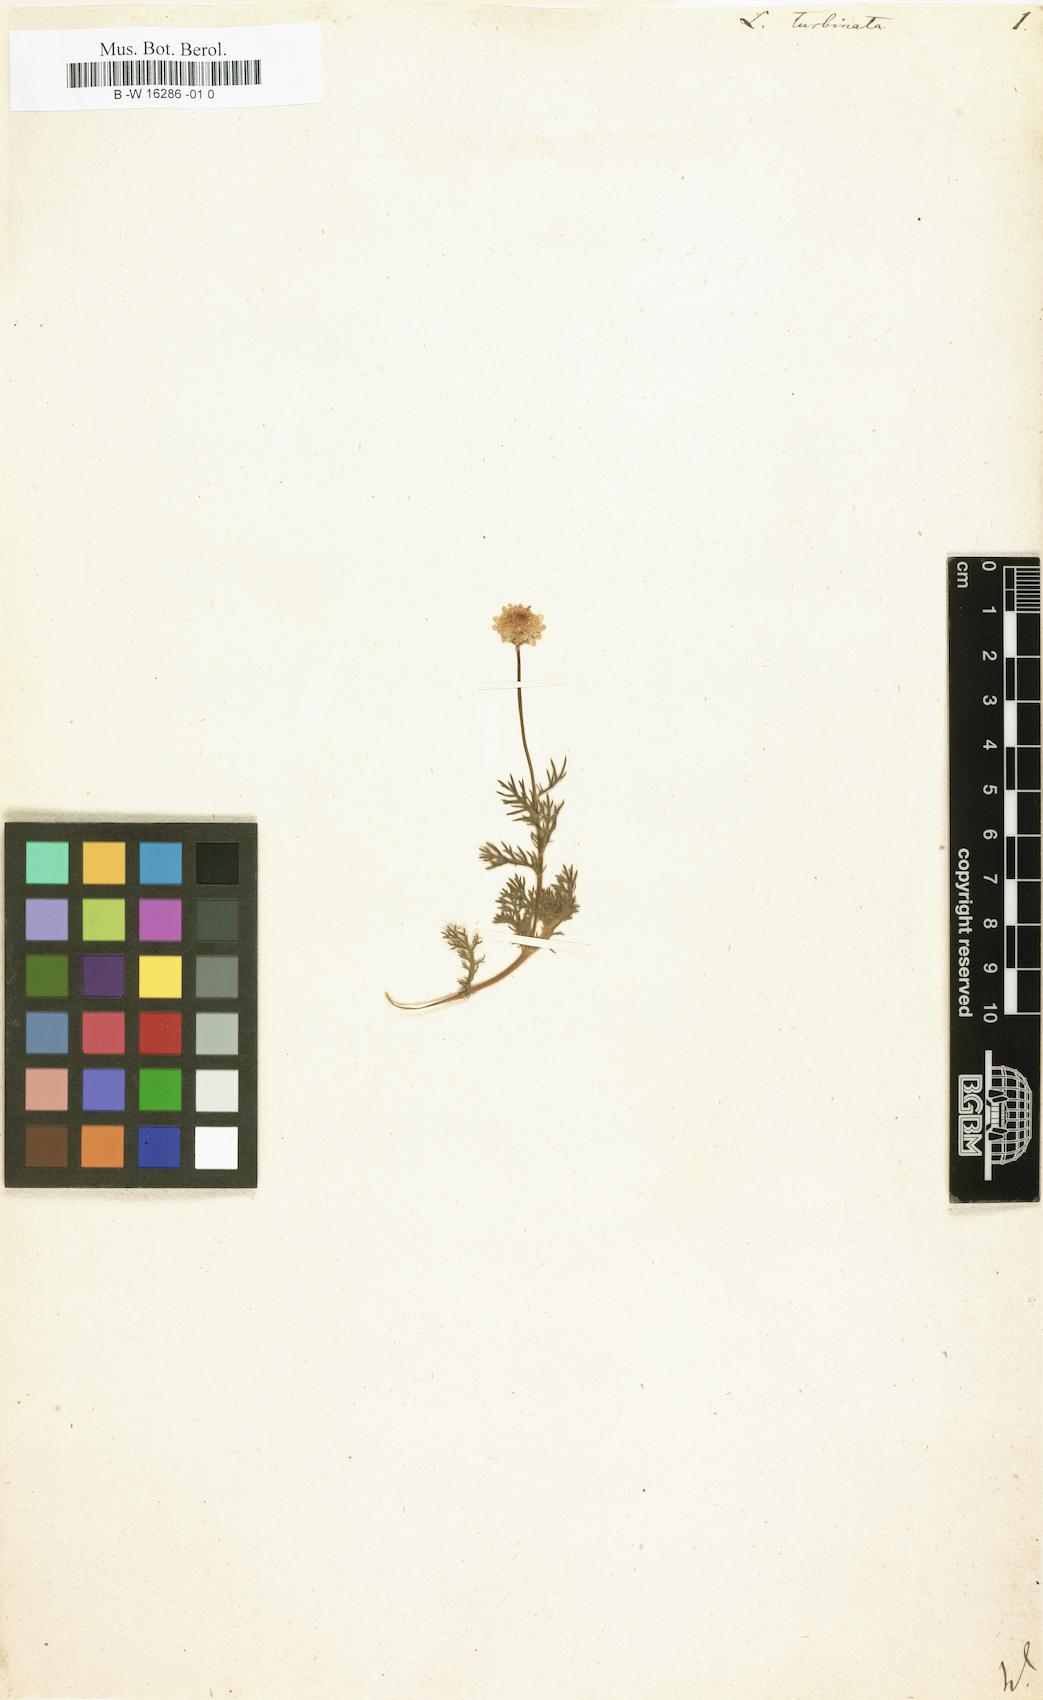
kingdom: Plantae
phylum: Tracheophyta
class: Magnoliopsida
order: Asterales
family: Asteraceae
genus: Cotula
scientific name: Cotula turbinata
